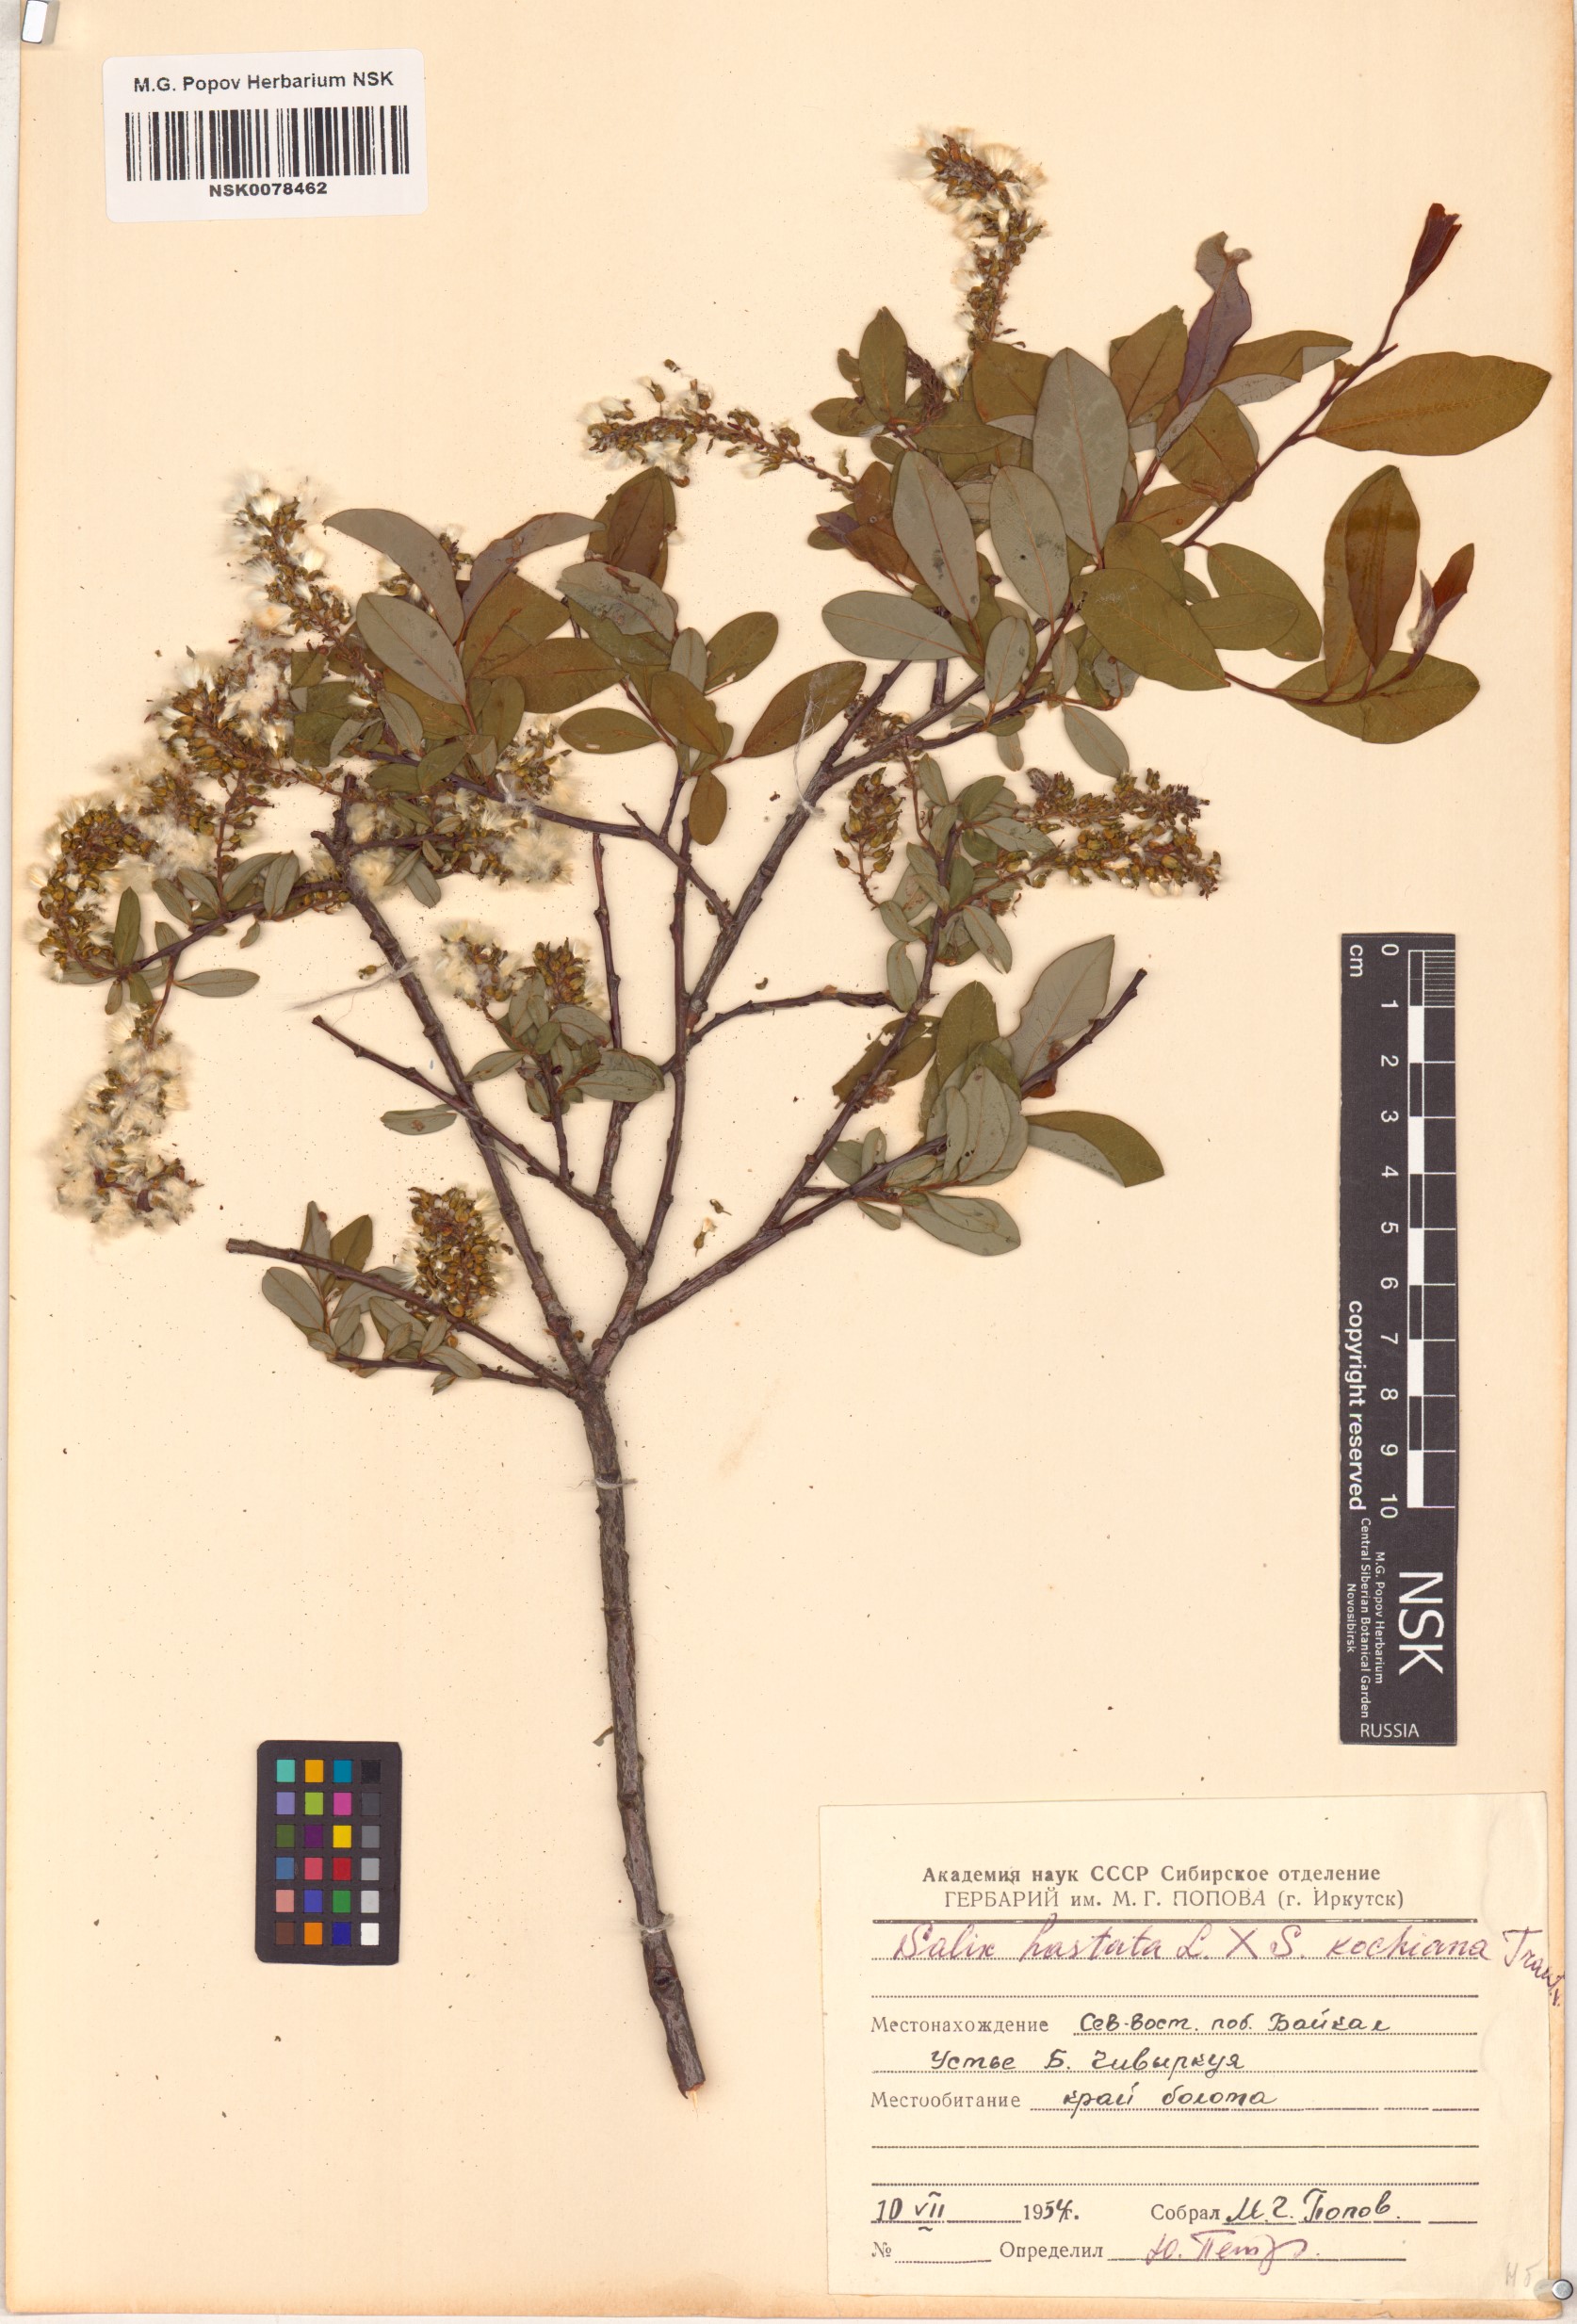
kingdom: Plantae
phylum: Tracheophyta
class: Magnoliopsida
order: Malpighiales
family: Salicaceae
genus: Salix
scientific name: Salix
